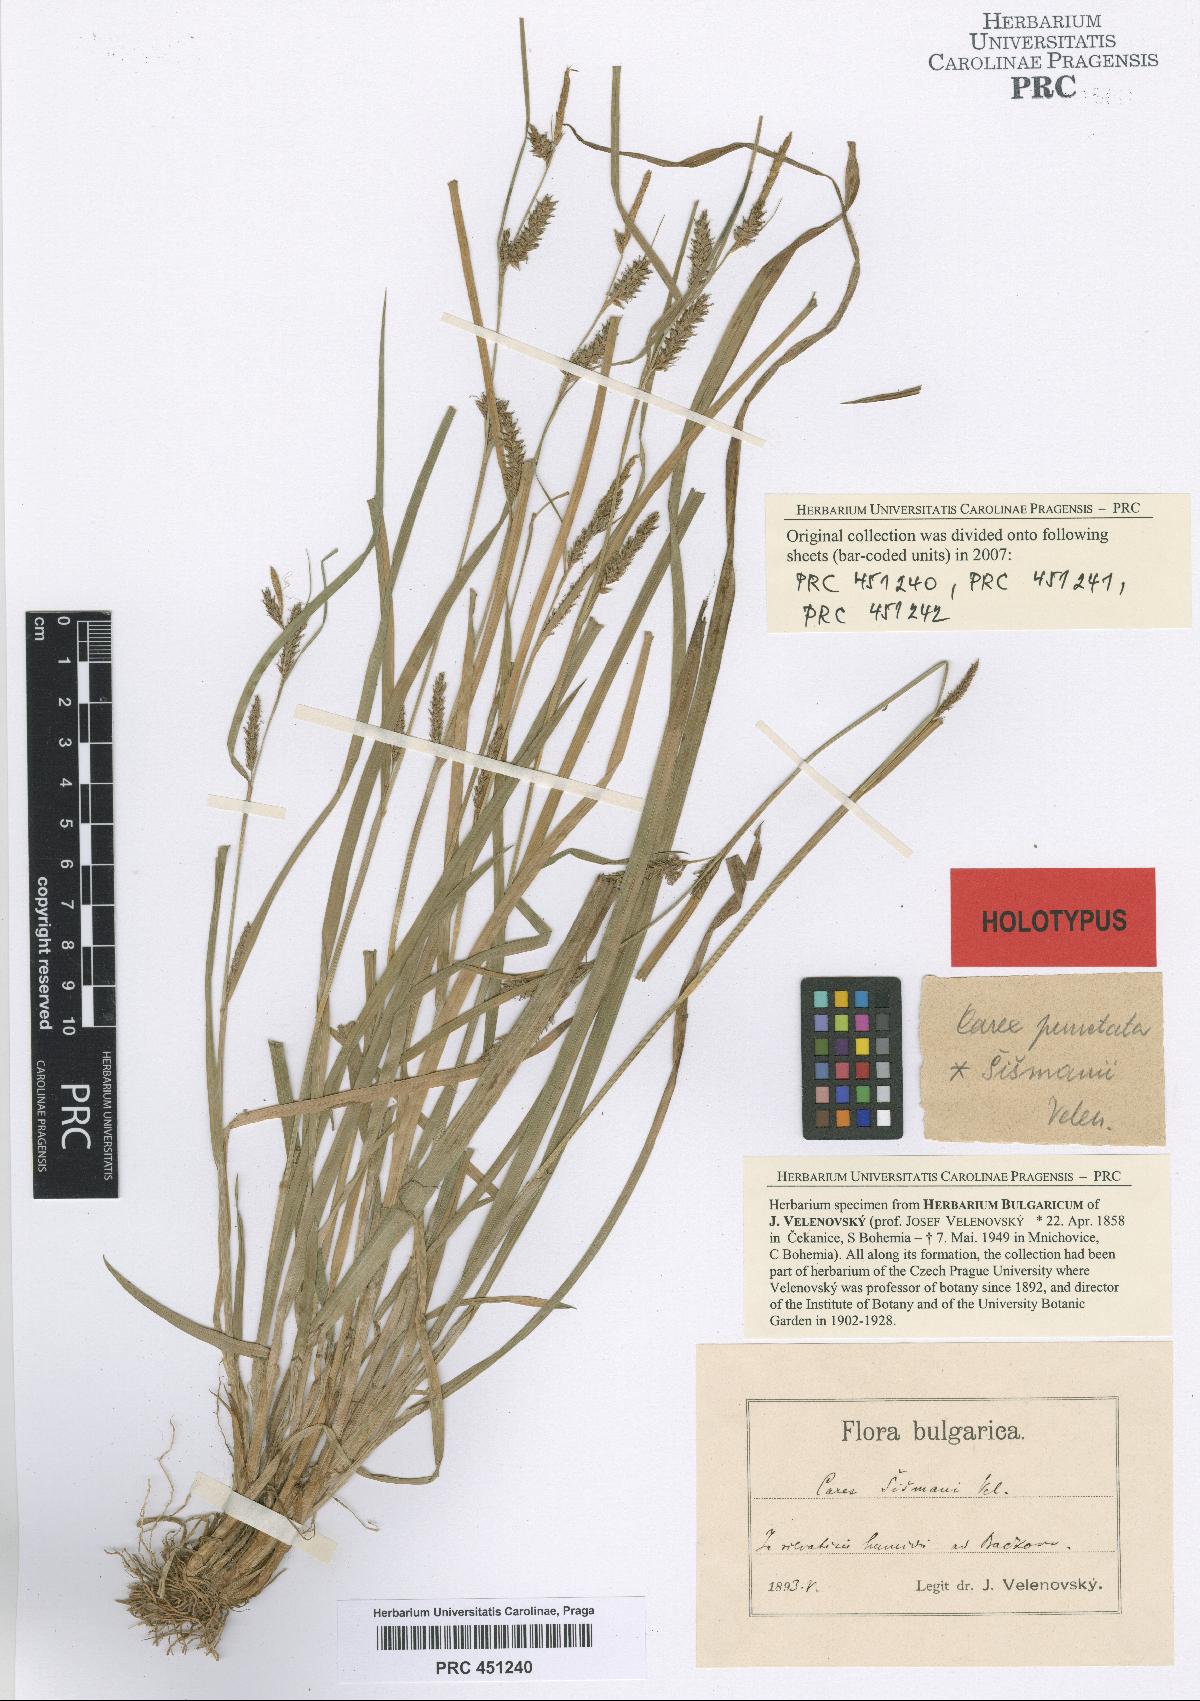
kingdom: Plantae
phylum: Tracheophyta
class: Liliopsida
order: Poales
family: Cyperaceae
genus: Carex
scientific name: Carex punctata
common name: Dotted sedge
